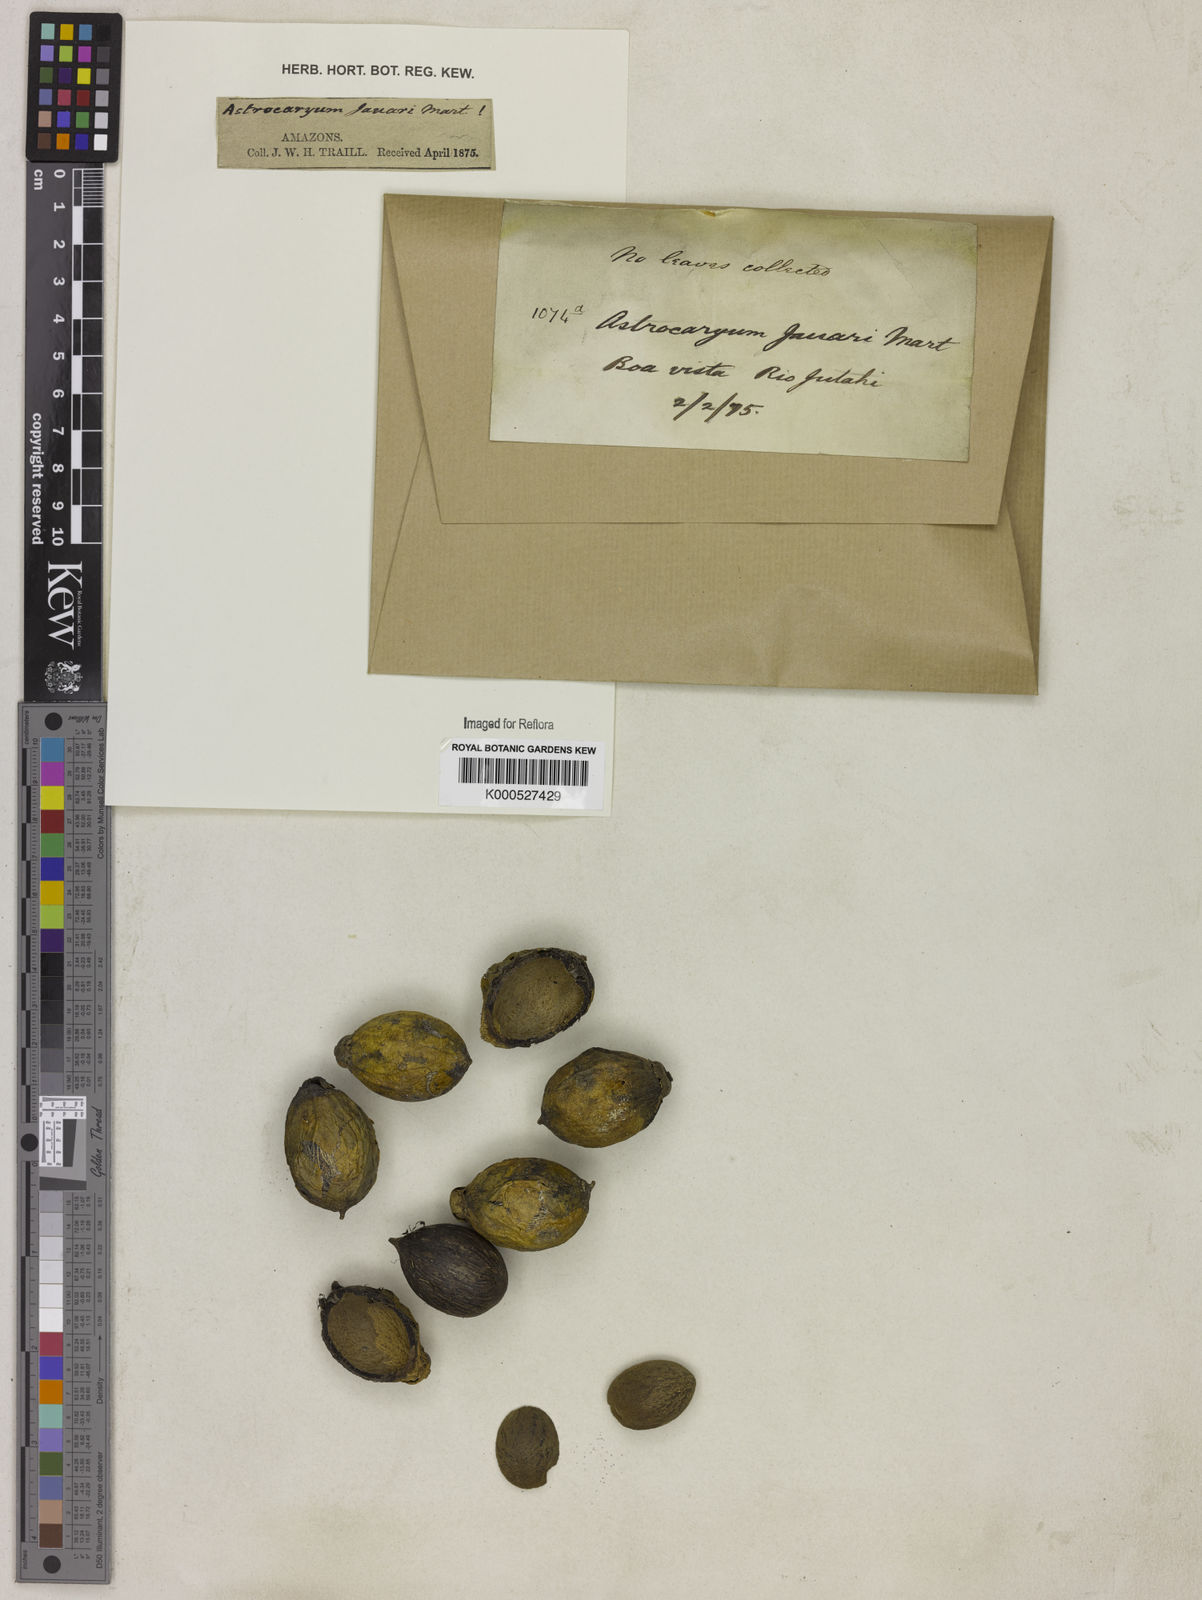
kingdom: Plantae
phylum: Tracheophyta
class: Liliopsida
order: Arecales
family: Arecaceae
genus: Astrocaryum
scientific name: Astrocaryum jauari
